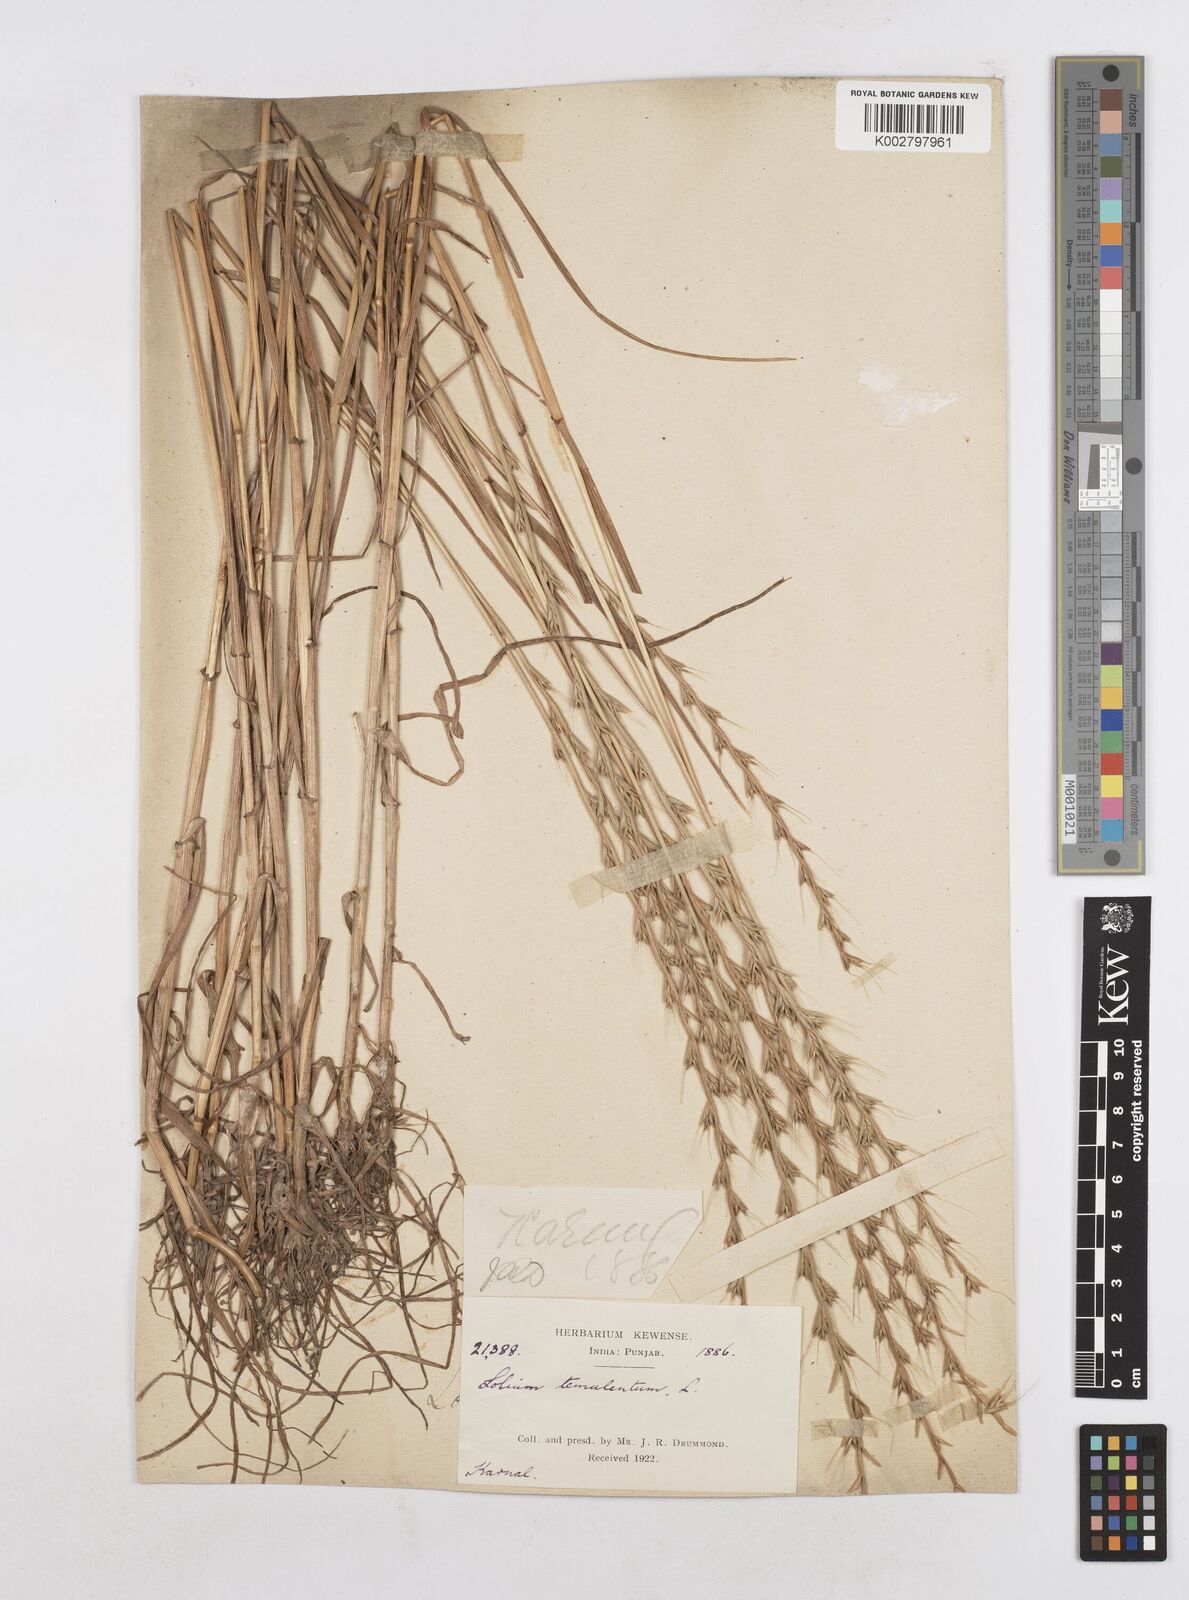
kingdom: Plantae
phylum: Tracheophyta
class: Liliopsida
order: Poales
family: Poaceae
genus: Lolium
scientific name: Lolium temulentum
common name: Darnel
